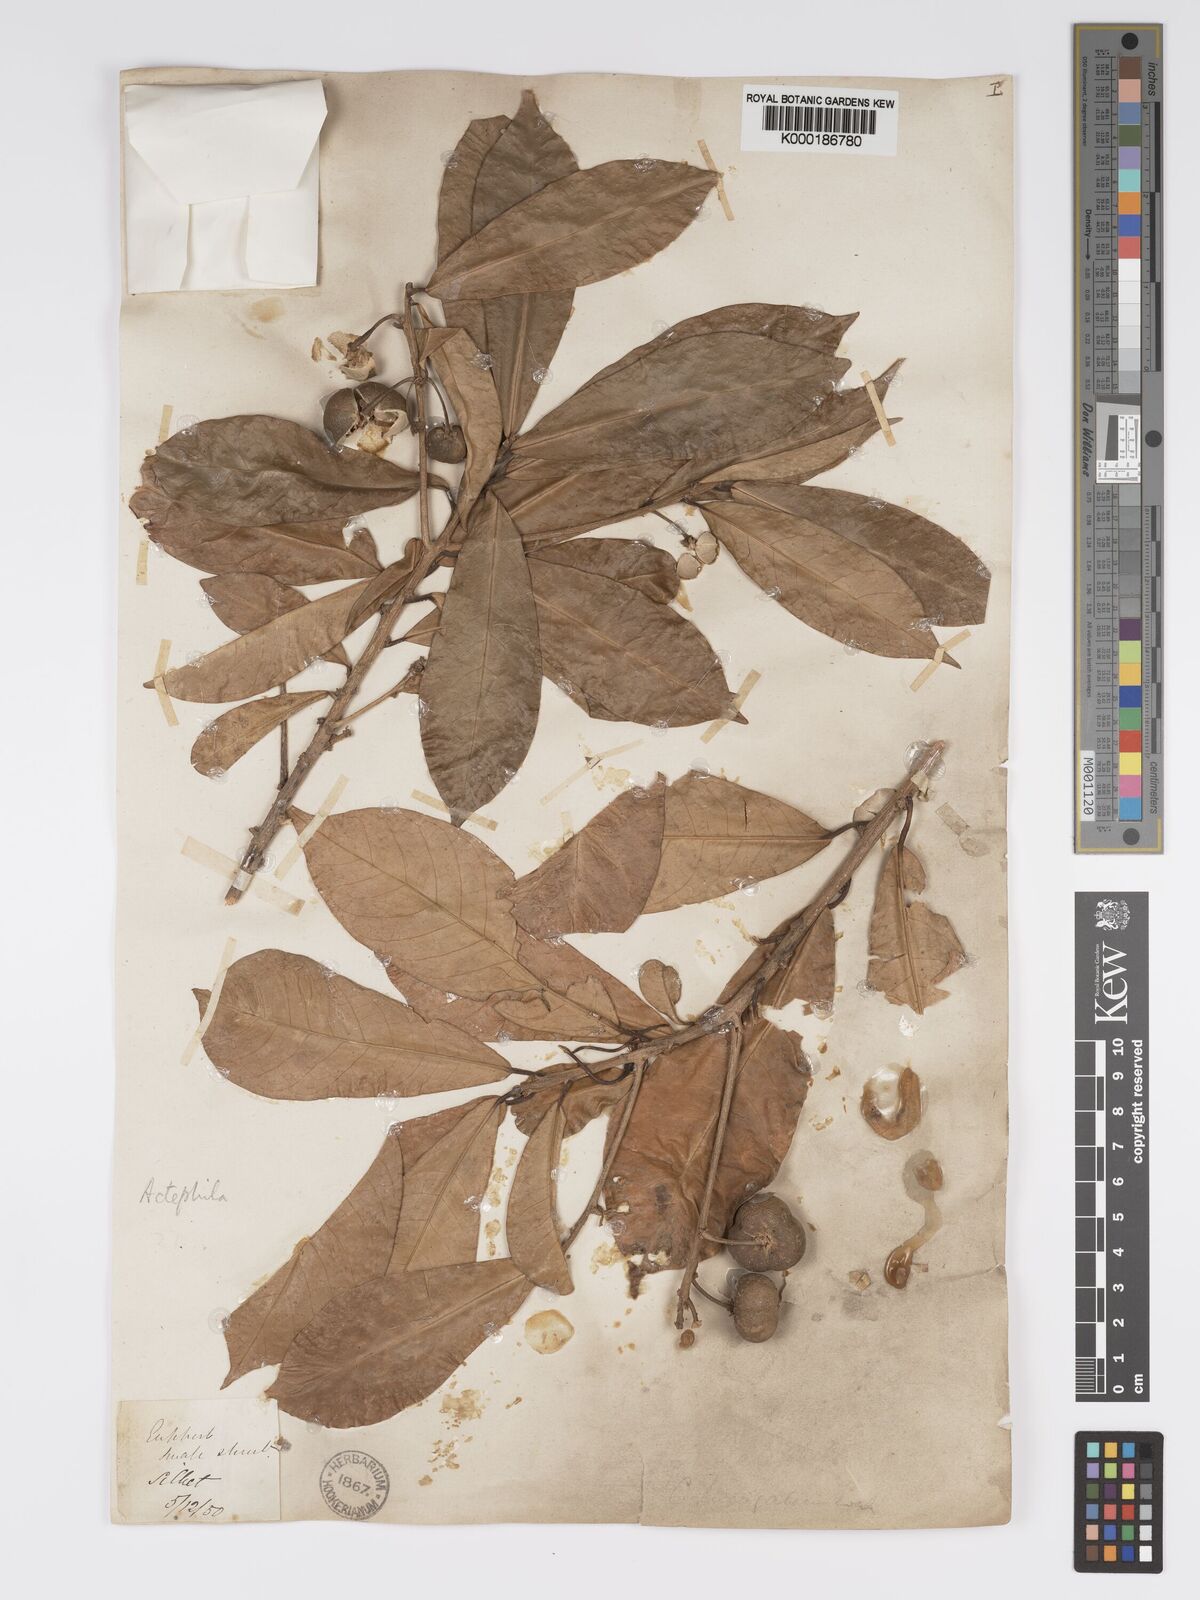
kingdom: Plantae
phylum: Tracheophyta
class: Magnoliopsida
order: Malpighiales
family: Phyllanthaceae
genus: Actephila
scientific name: Actephila excelsa
